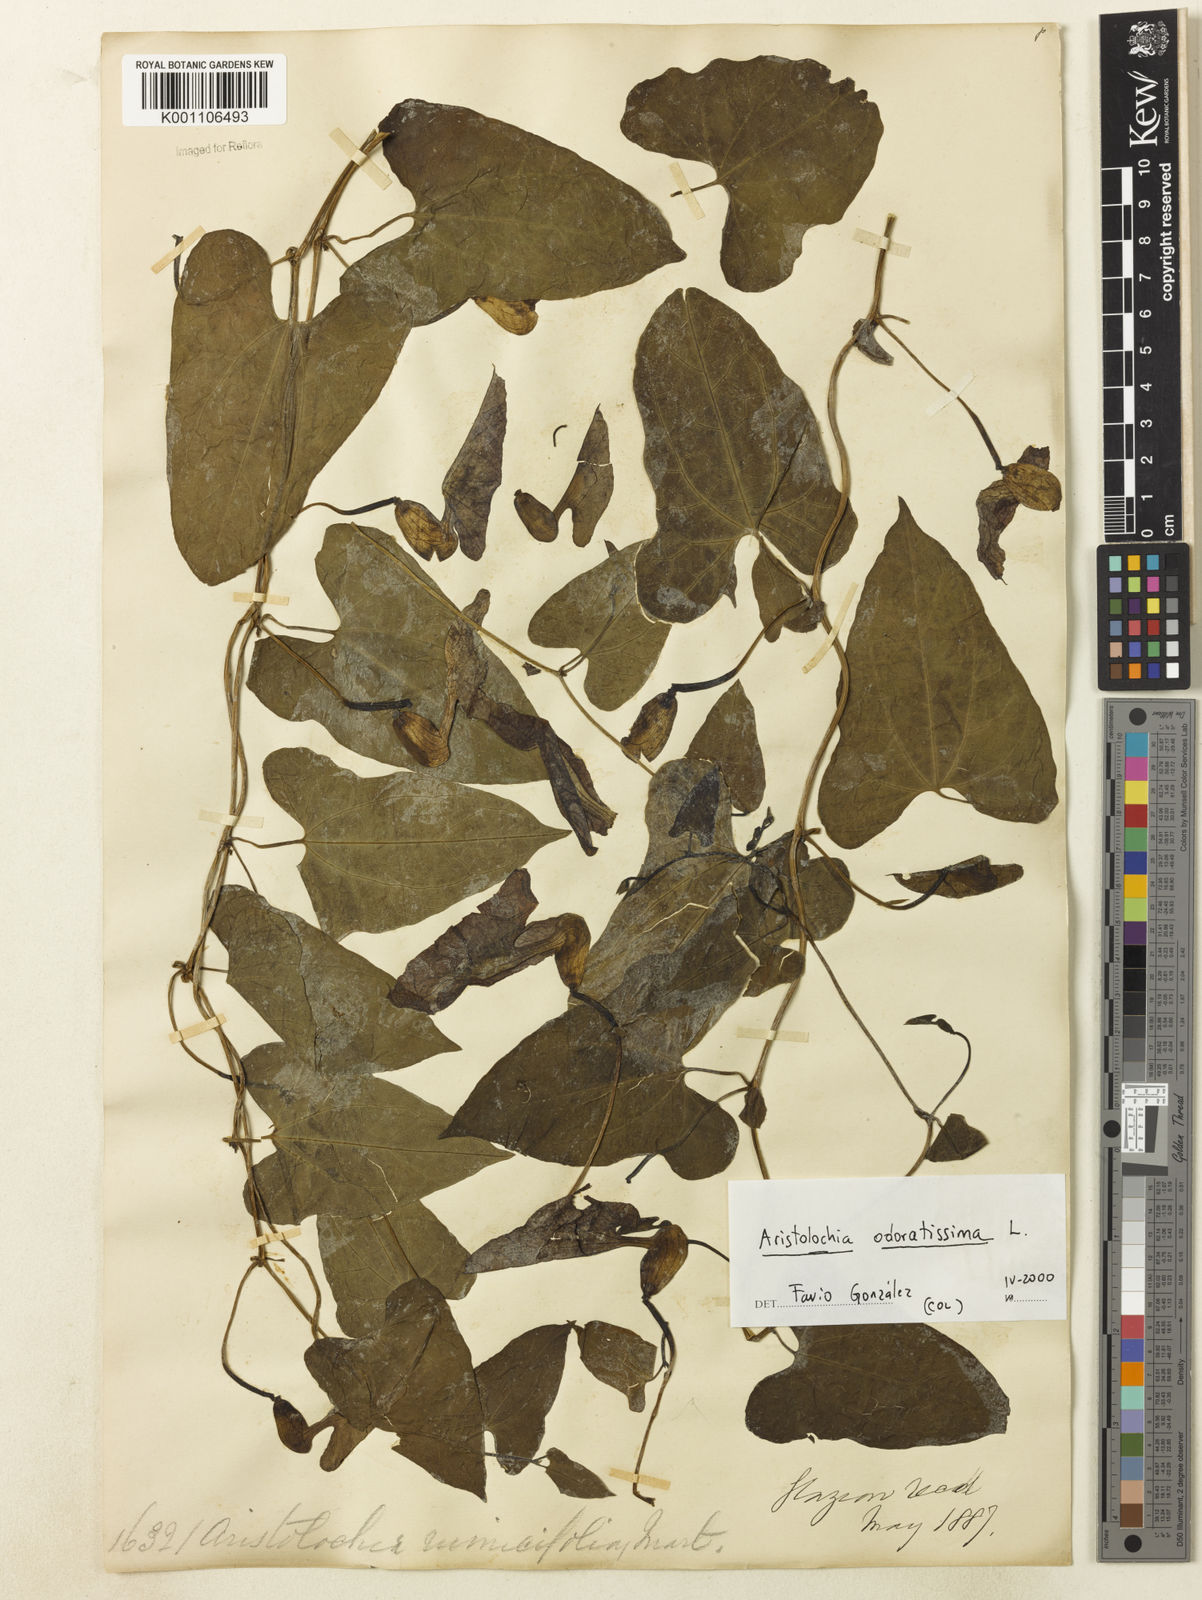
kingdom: Plantae
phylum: Tracheophyta
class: Magnoliopsida
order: Piperales
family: Aristolochiaceae
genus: Aristolochia
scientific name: Aristolochia odoratissima
